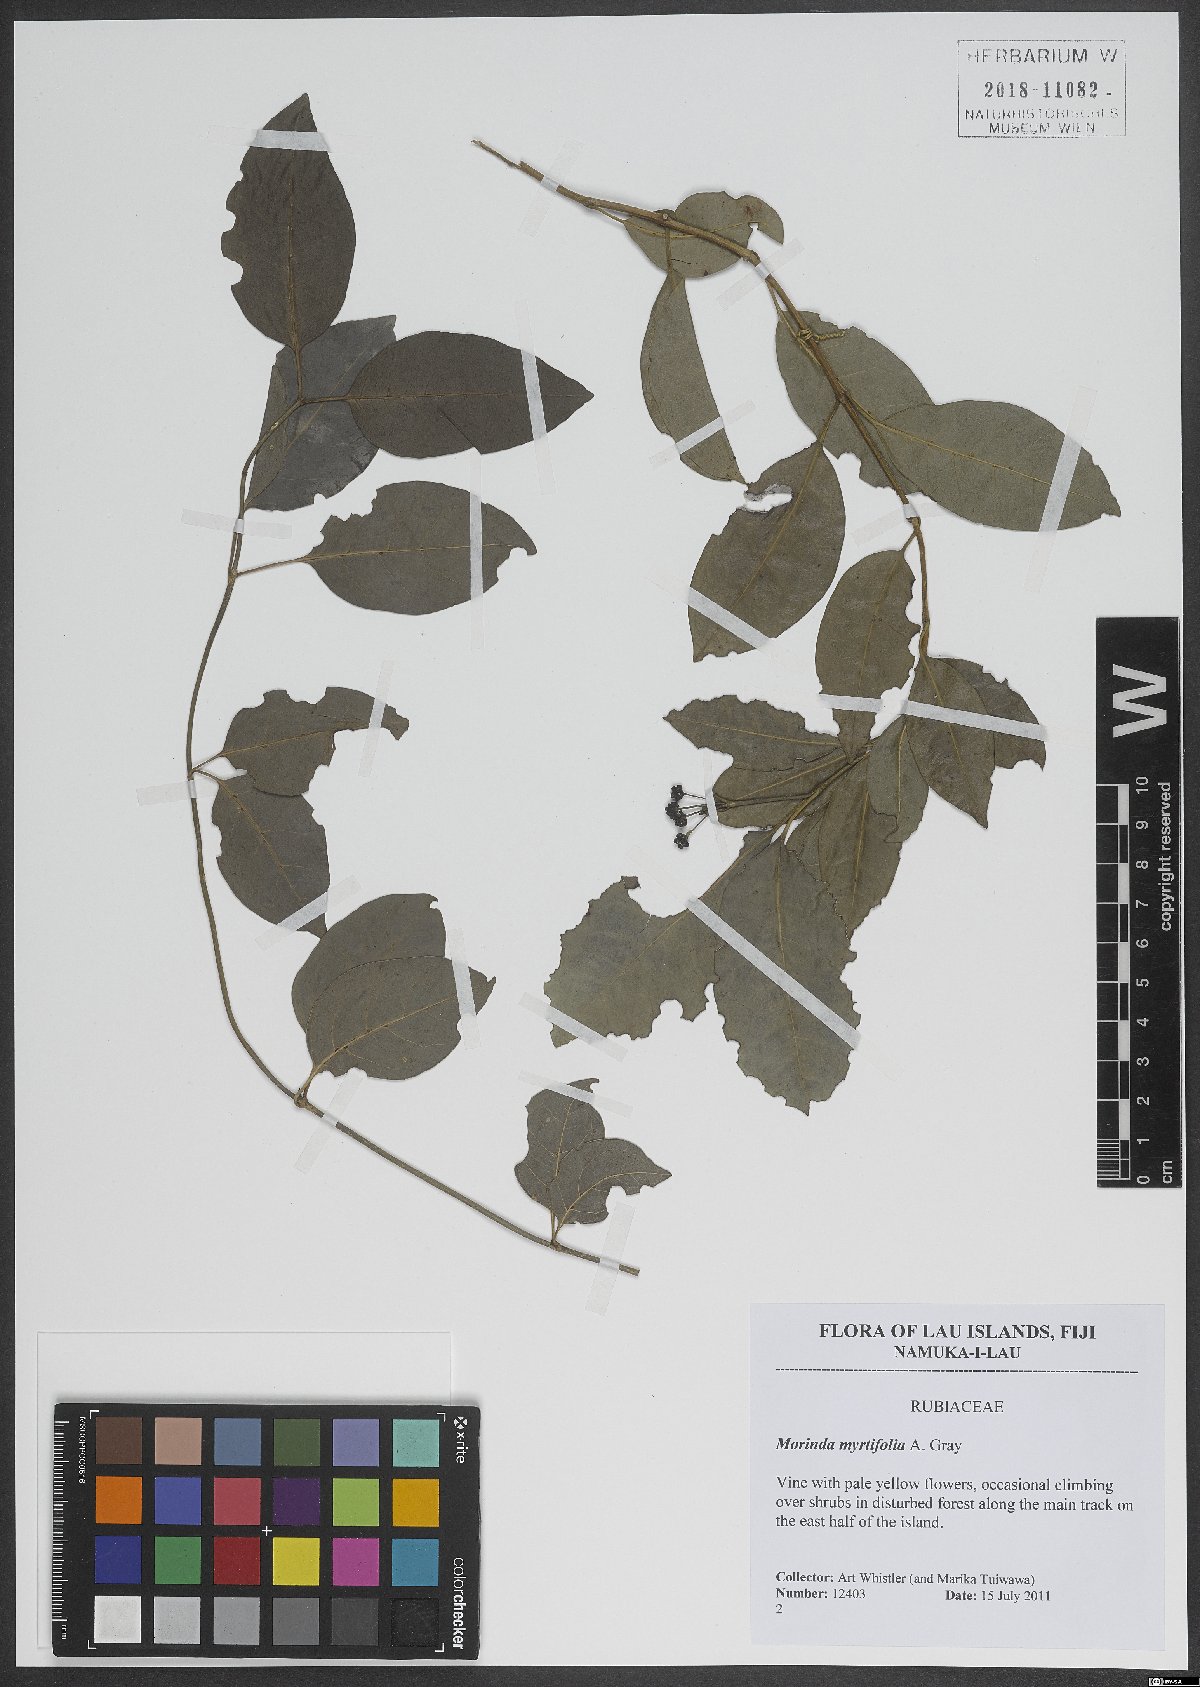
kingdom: Plantae
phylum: Tracheophyta
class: Magnoliopsida
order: Gentianales
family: Rubiaceae
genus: Gynochthodes
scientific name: Gynochthodes myrtifolia
